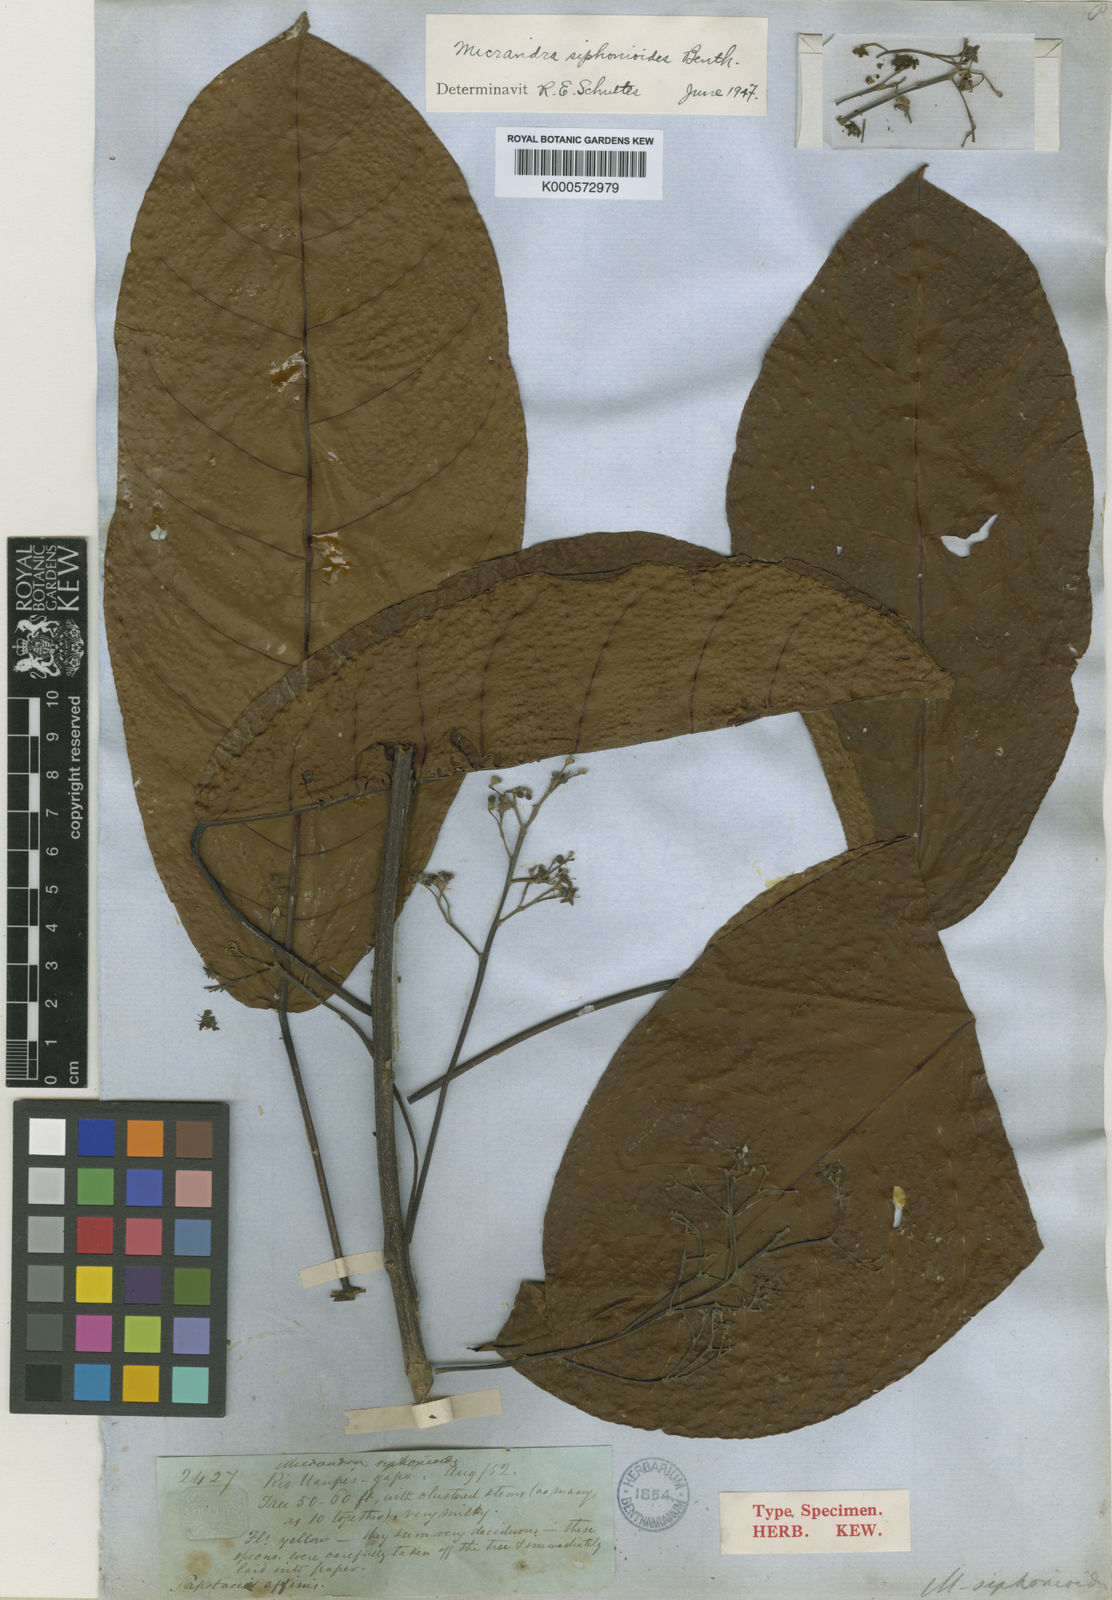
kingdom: Plantae
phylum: Tracheophyta
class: Magnoliopsida
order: Malpighiales
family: Euphorbiaceae
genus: Micrandra
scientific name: Micrandra siphonioides
